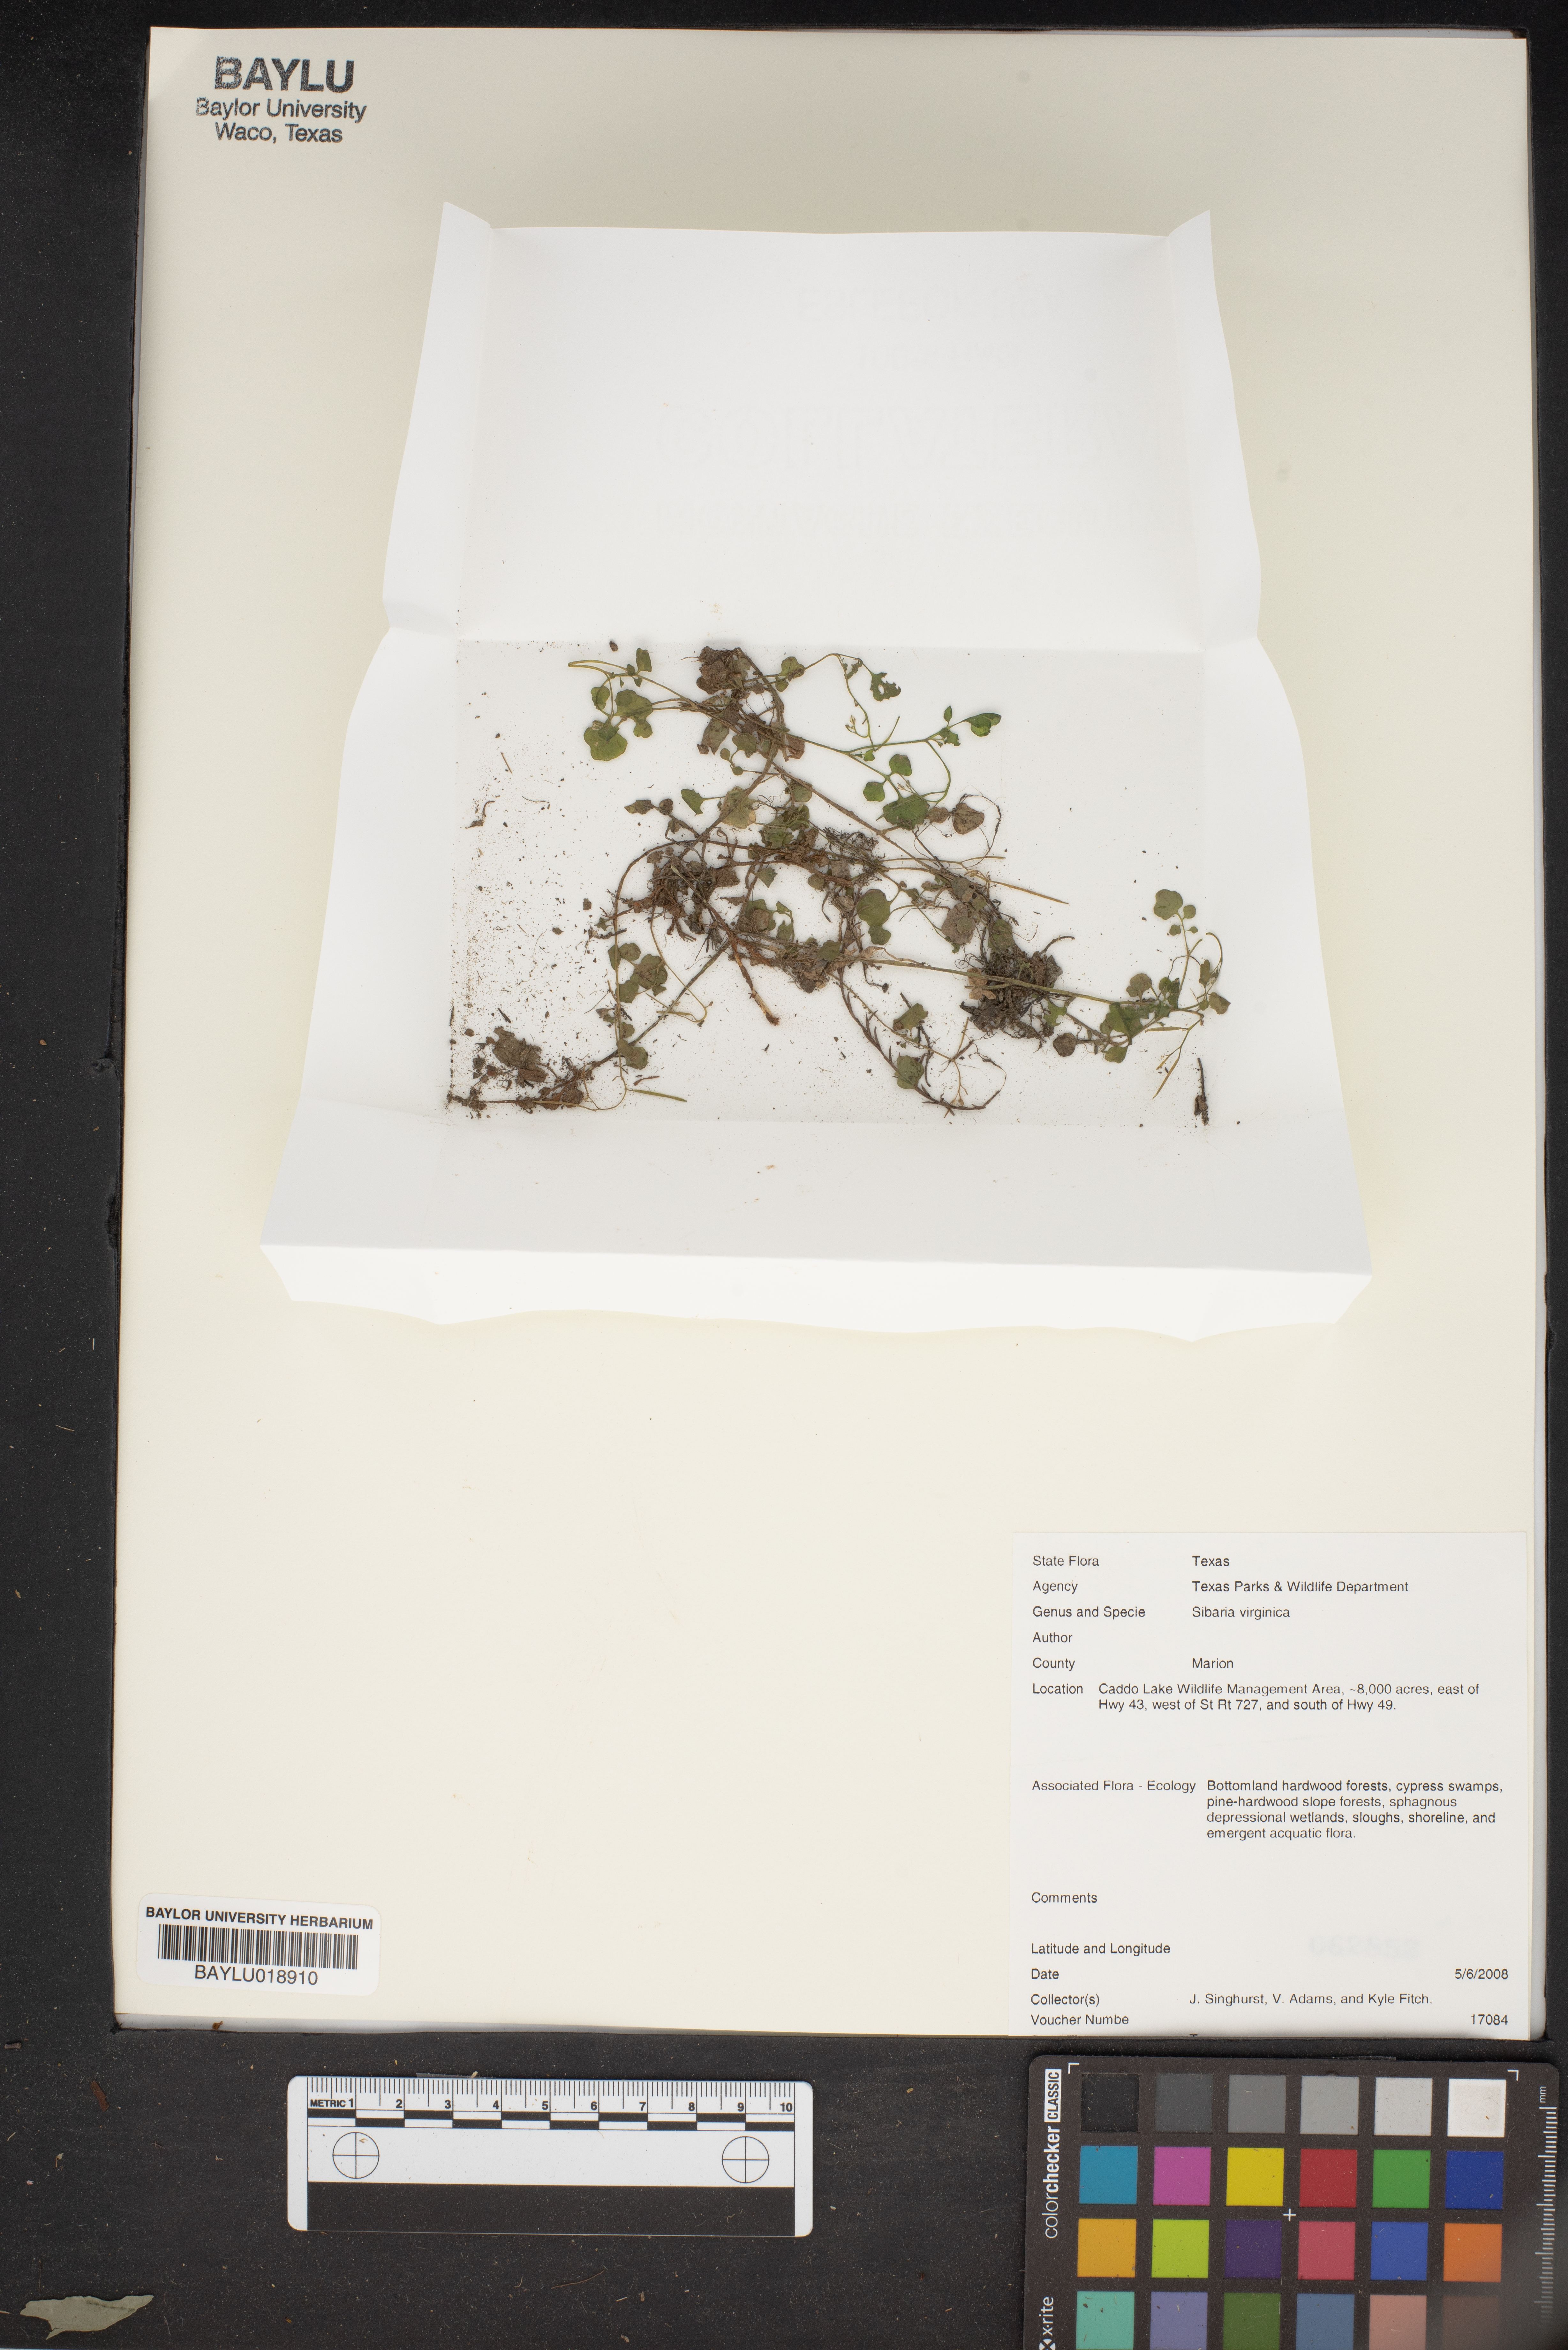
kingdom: Plantae
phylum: Tracheophyta
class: Magnoliopsida
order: Brassicales
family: Brassicaceae
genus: Planodes
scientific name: Planodes virginicum
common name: Virginia cress
